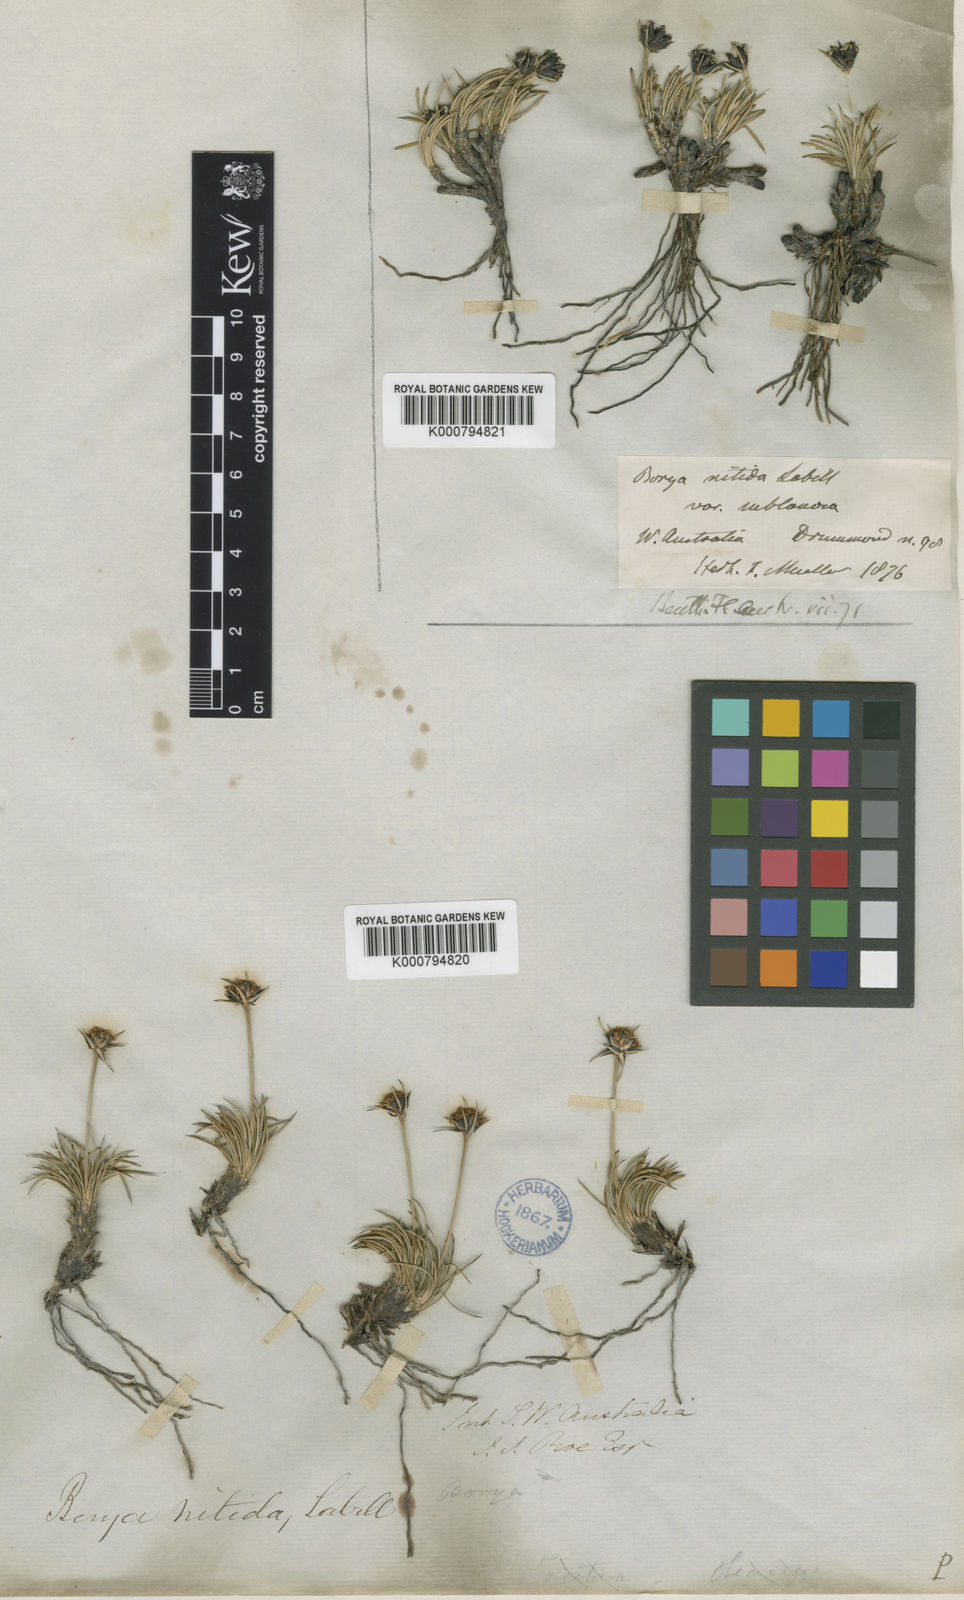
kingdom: Plantae
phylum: Tracheophyta
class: Liliopsida
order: Asparagales
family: Boryaceae
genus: Borya
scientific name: Borya nitida
